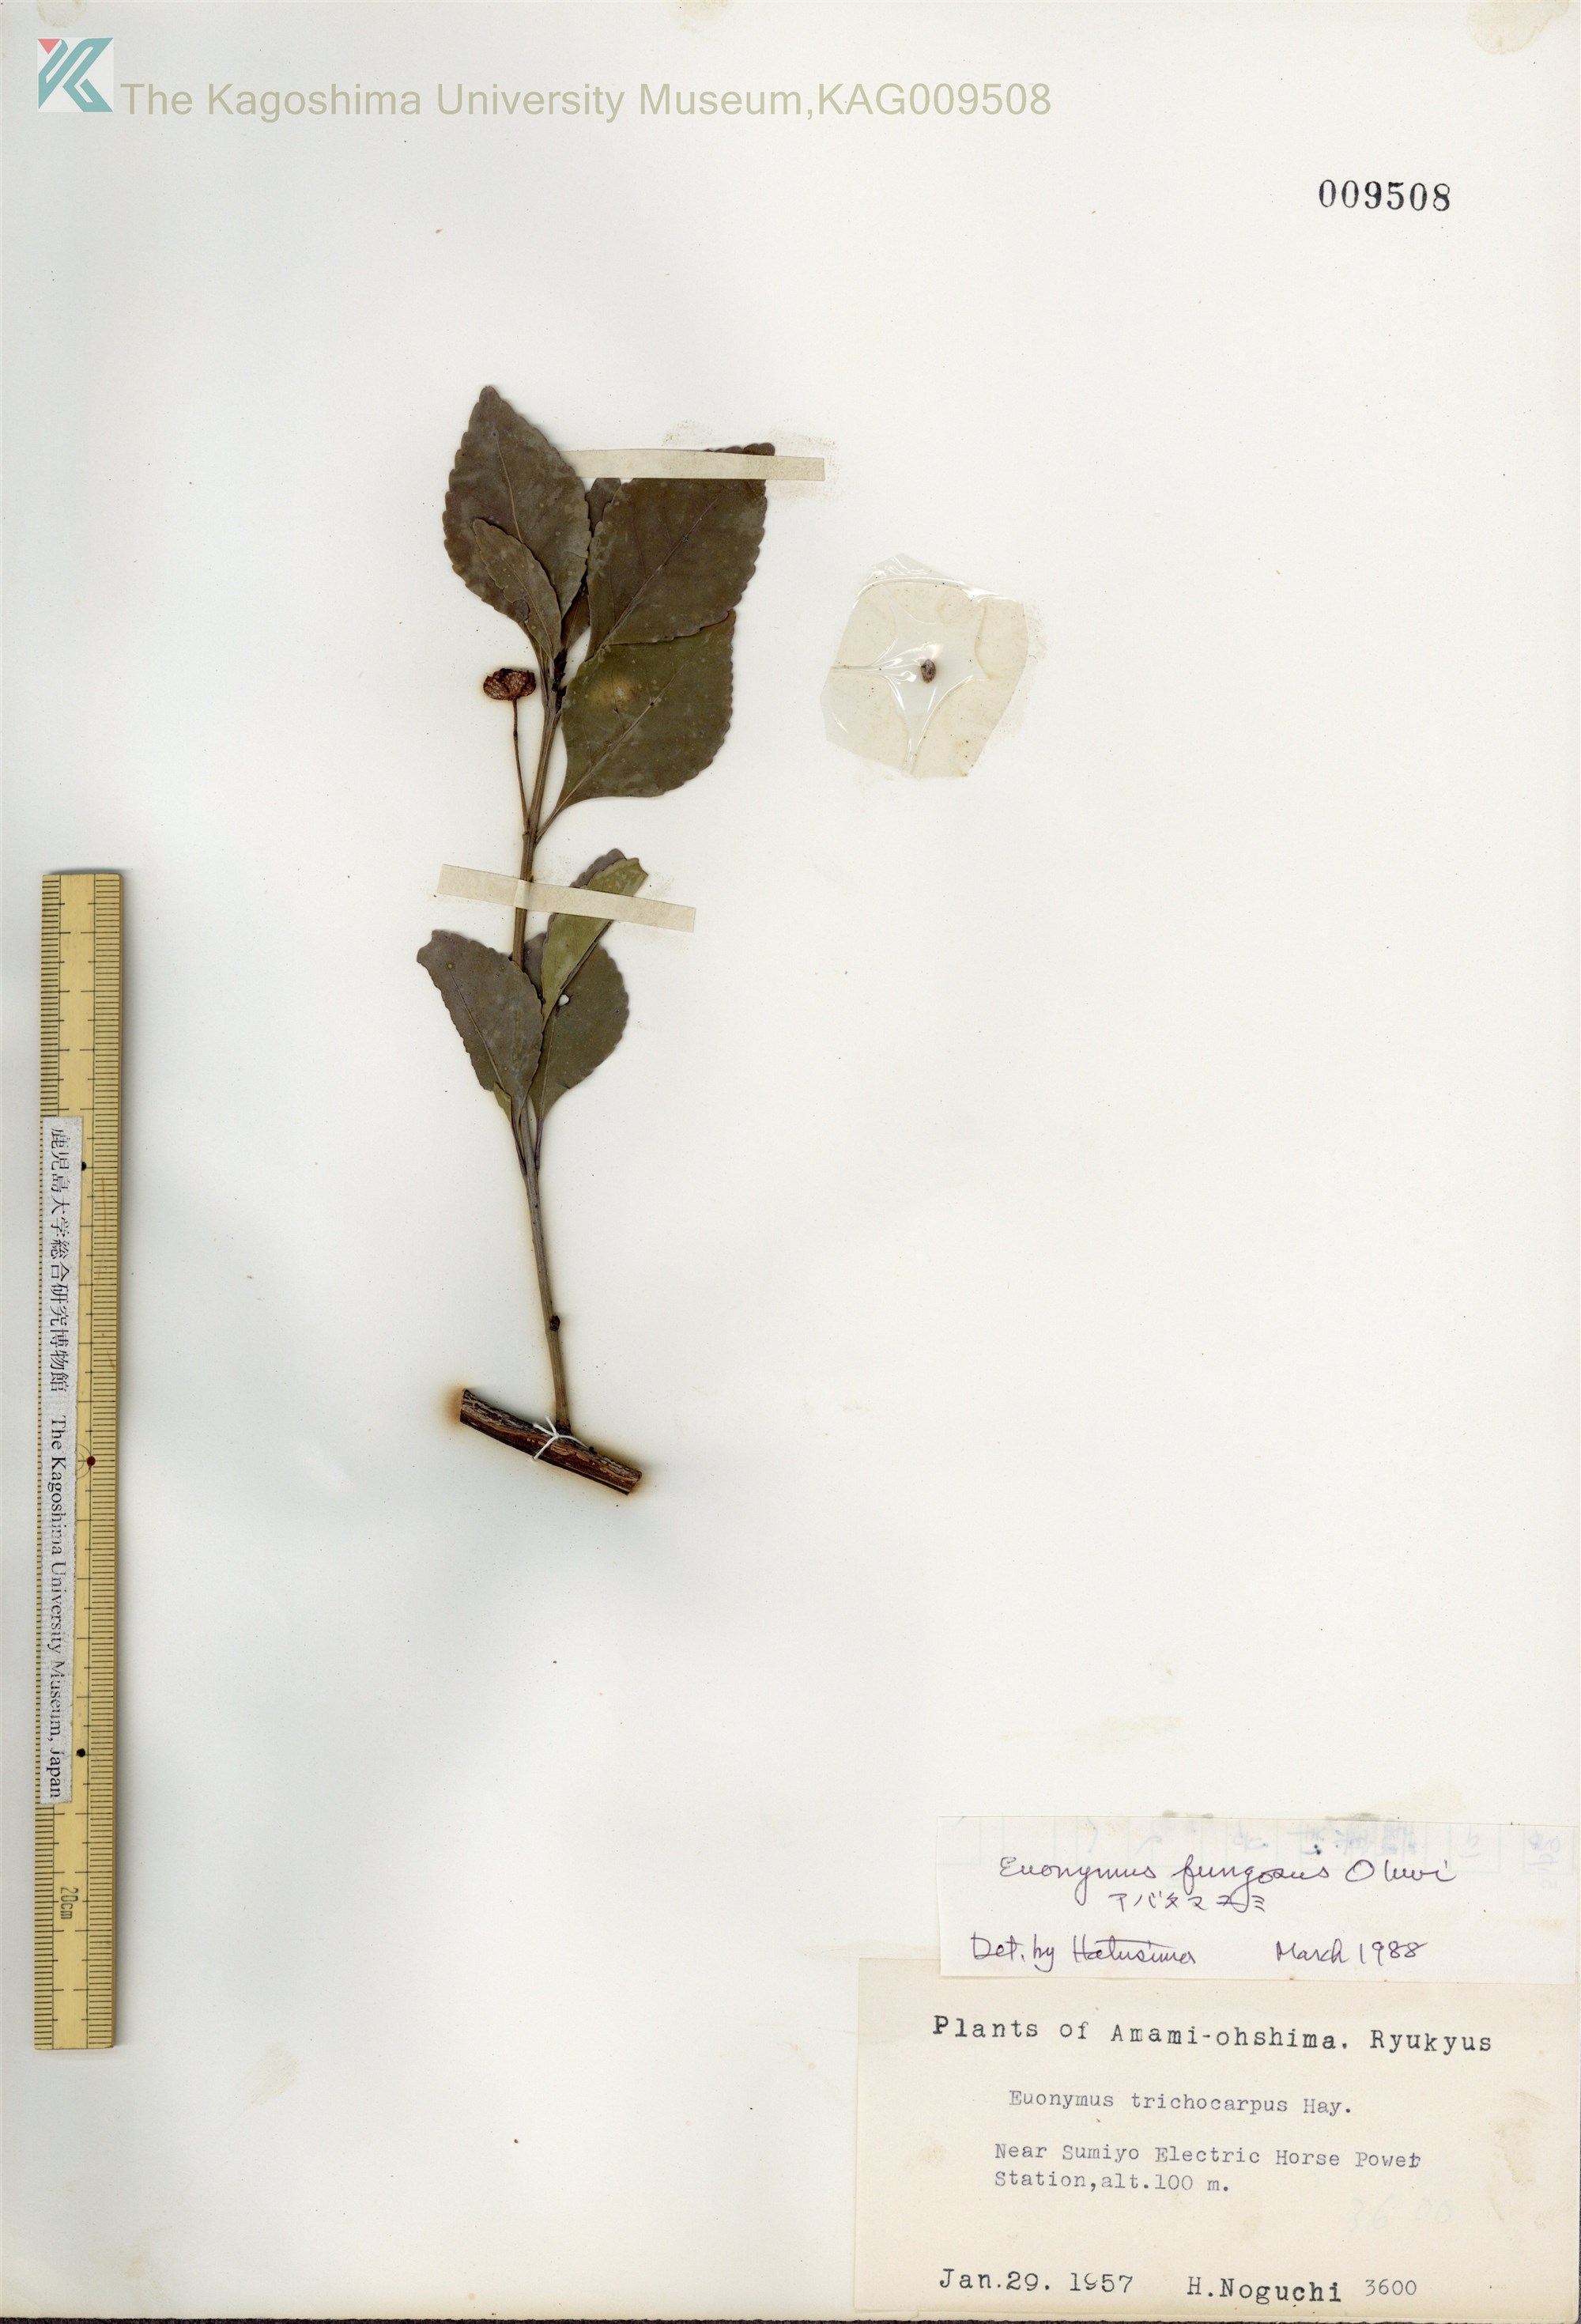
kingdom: Plantae
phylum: Tracheophyta
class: Magnoliopsida
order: Celastrales
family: Celastraceae
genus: Euonymus
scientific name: Euonymus echinatus
